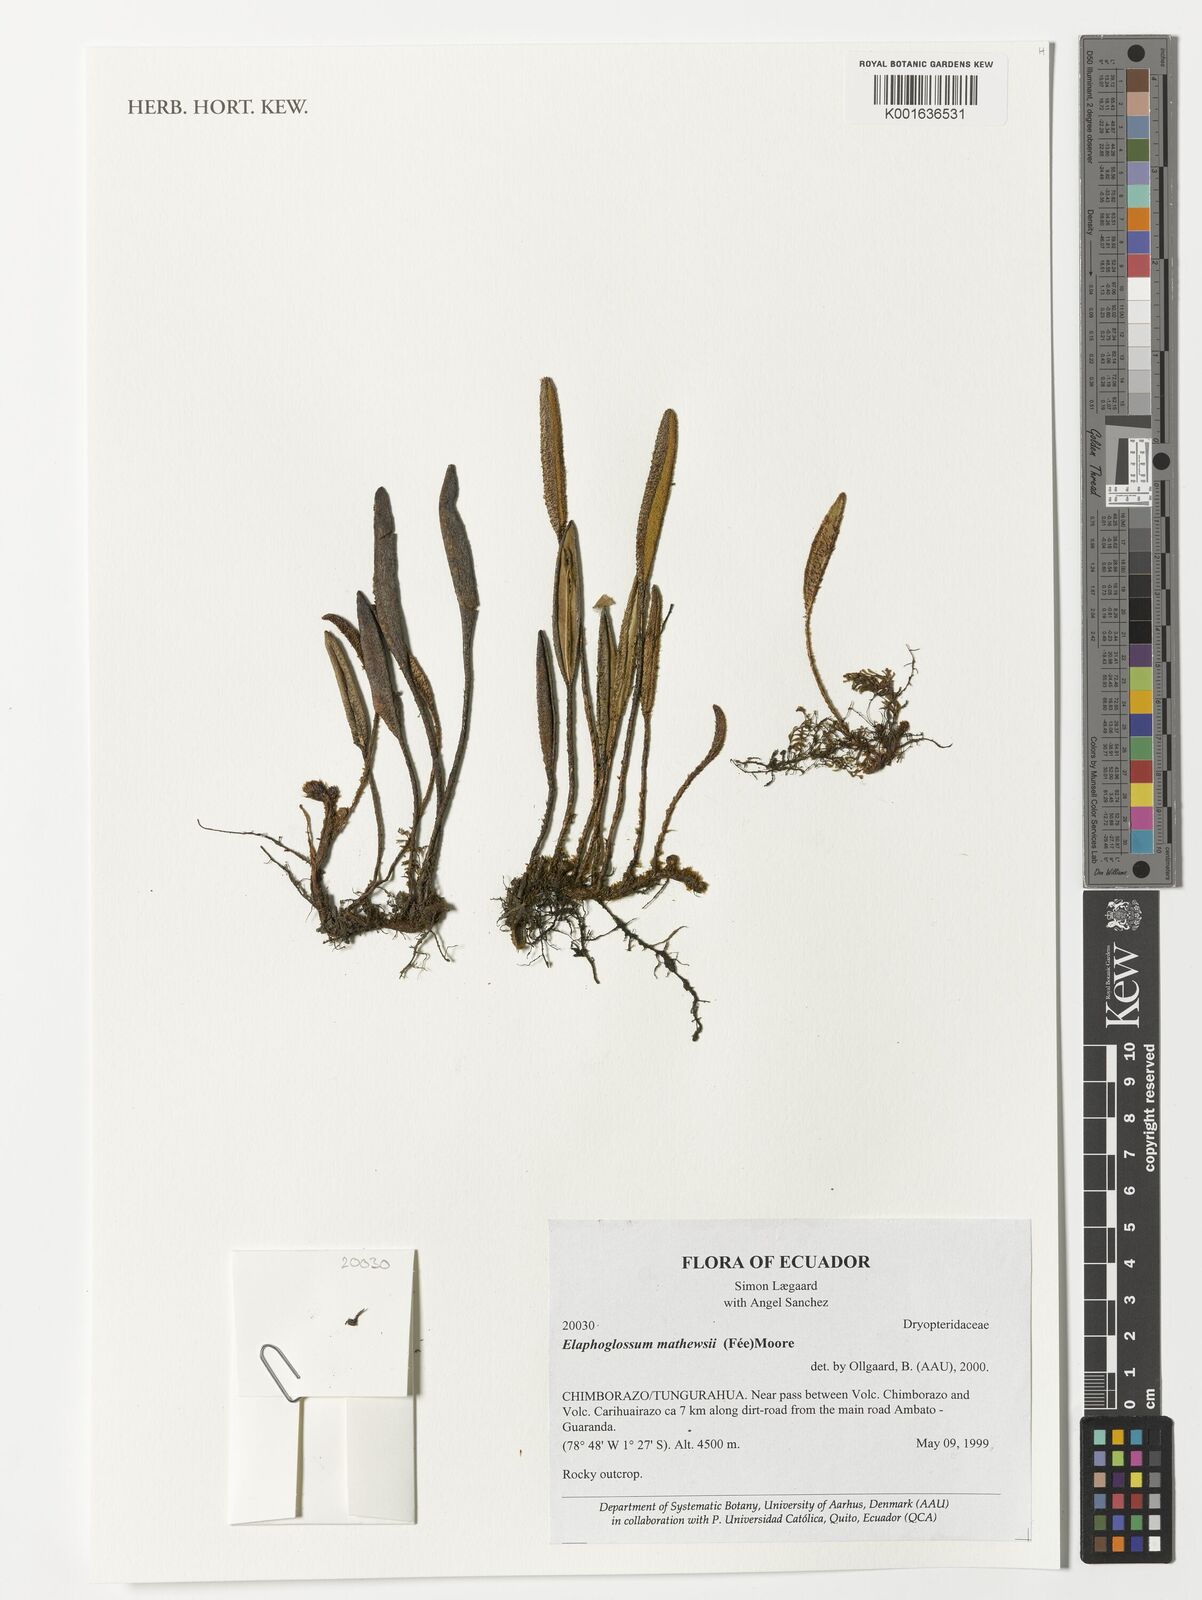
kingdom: Plantae
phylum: Tracheophyta
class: Polypodiopsida
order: Polypodiales
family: Dryopteridaceae
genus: Elaphoglossum
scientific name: Elaphoglossum mathewsii
